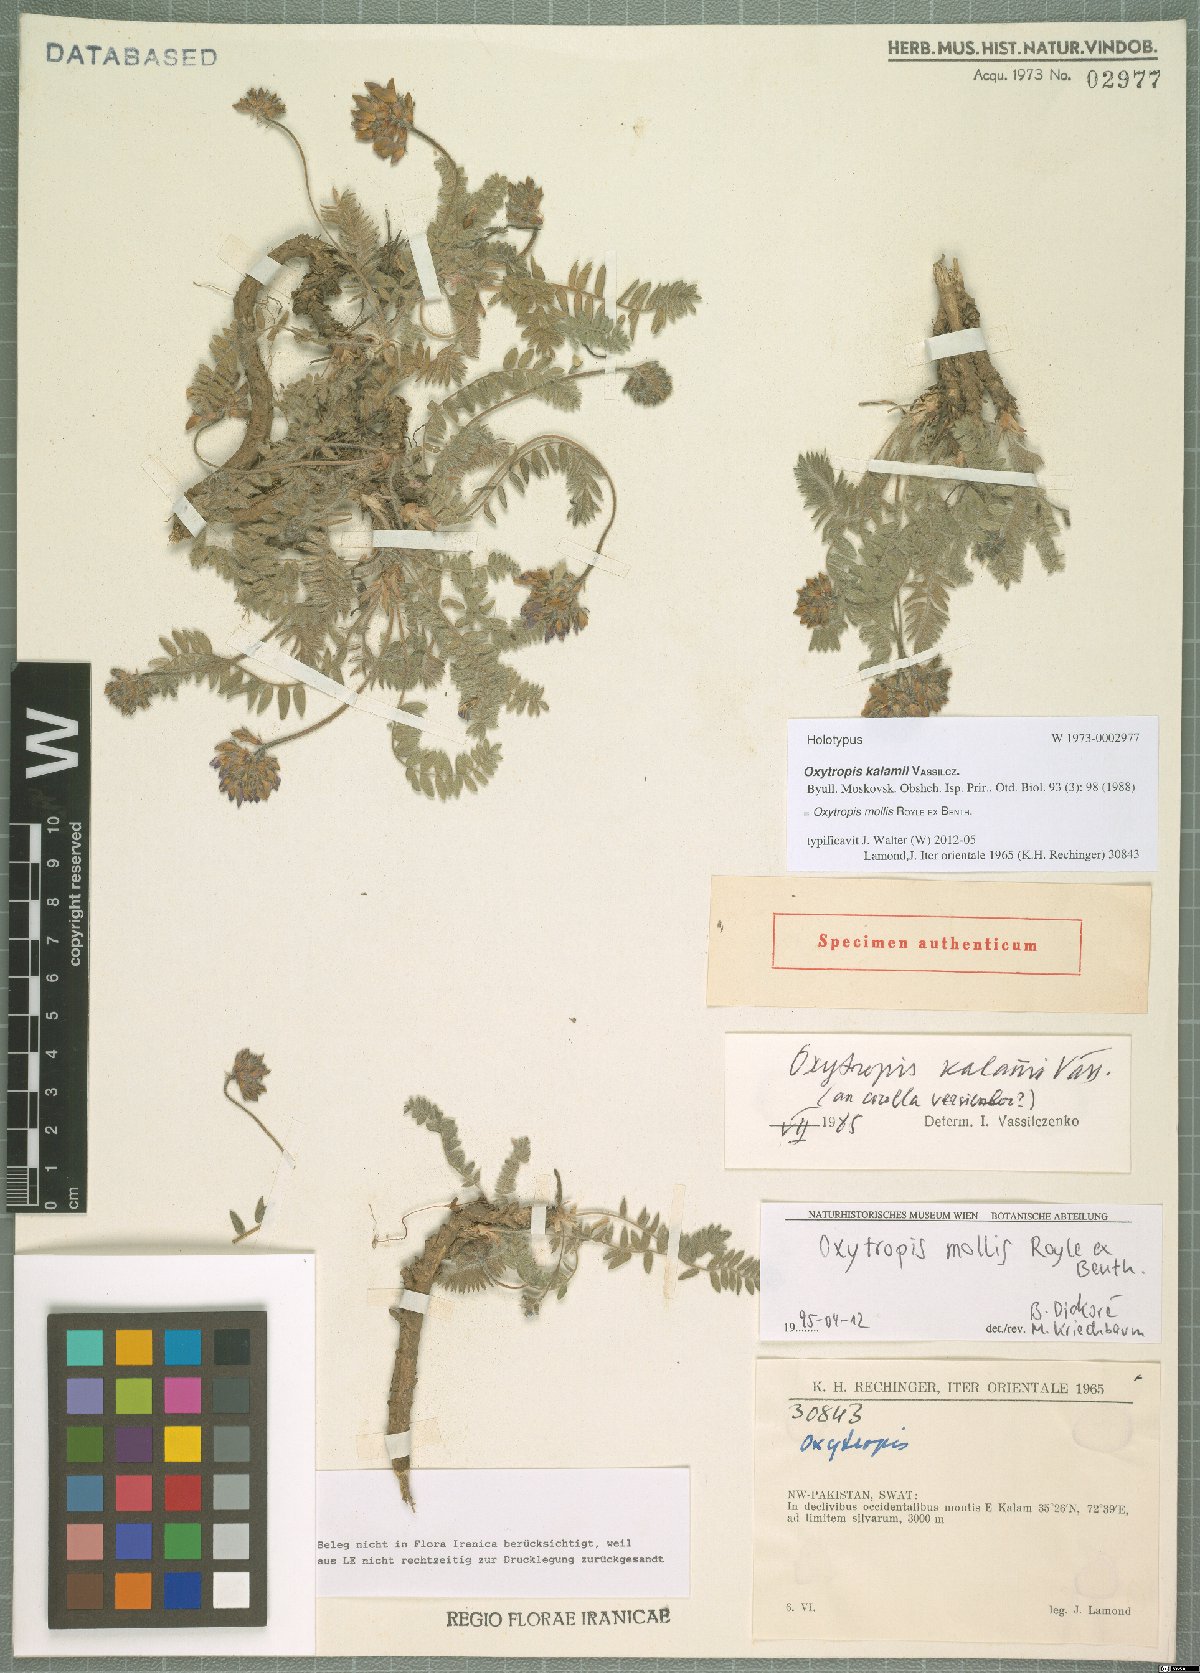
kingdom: Plantae
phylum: Tracheophyta
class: Magnoliopsida
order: Fabales
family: Fabaceae
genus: Oxytropis
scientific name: Oxytropis mollis
